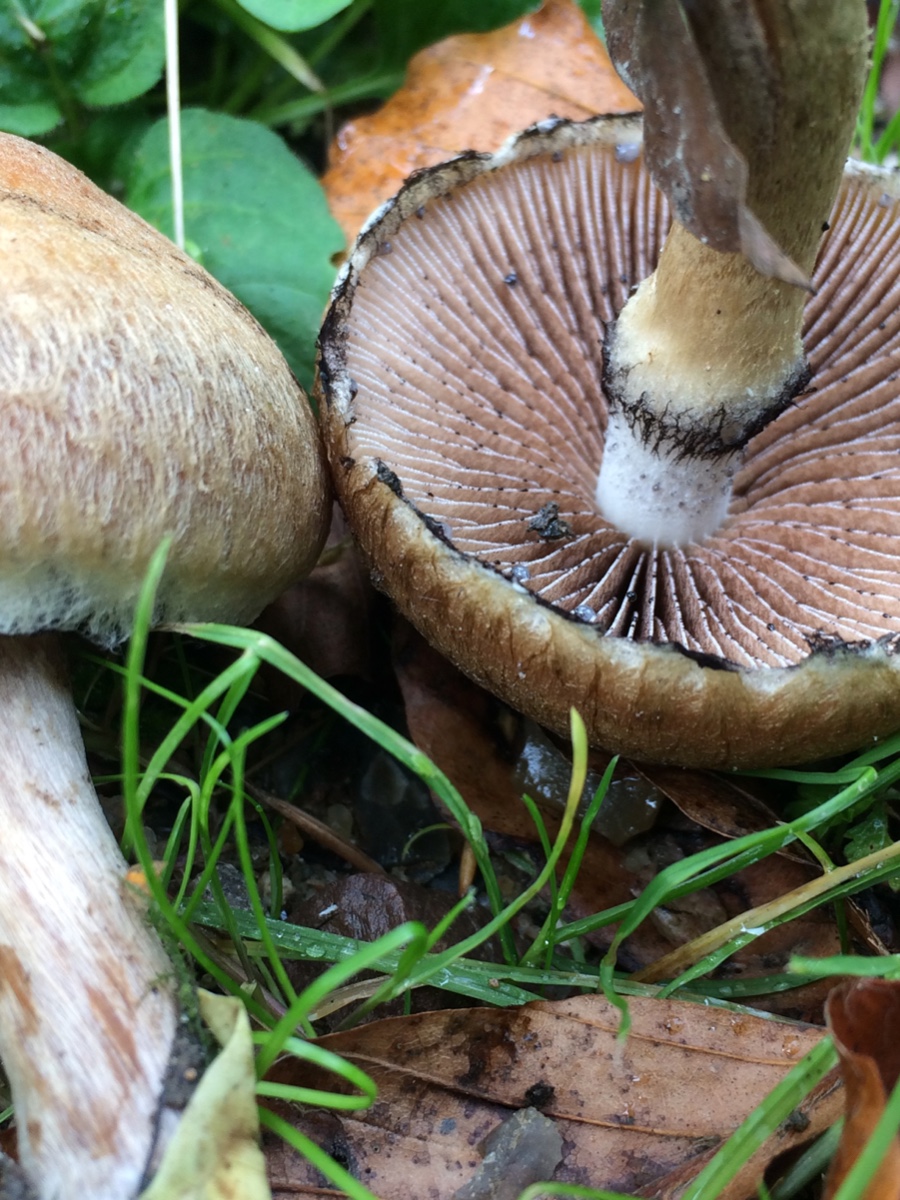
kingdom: Fungi
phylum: Basidiomycota
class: Agaricomycetes
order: Agaricales
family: Psathyrellaceae
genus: Lacrymaria
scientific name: Lacrymaria lacrymabunda
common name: grædende mørkhat
